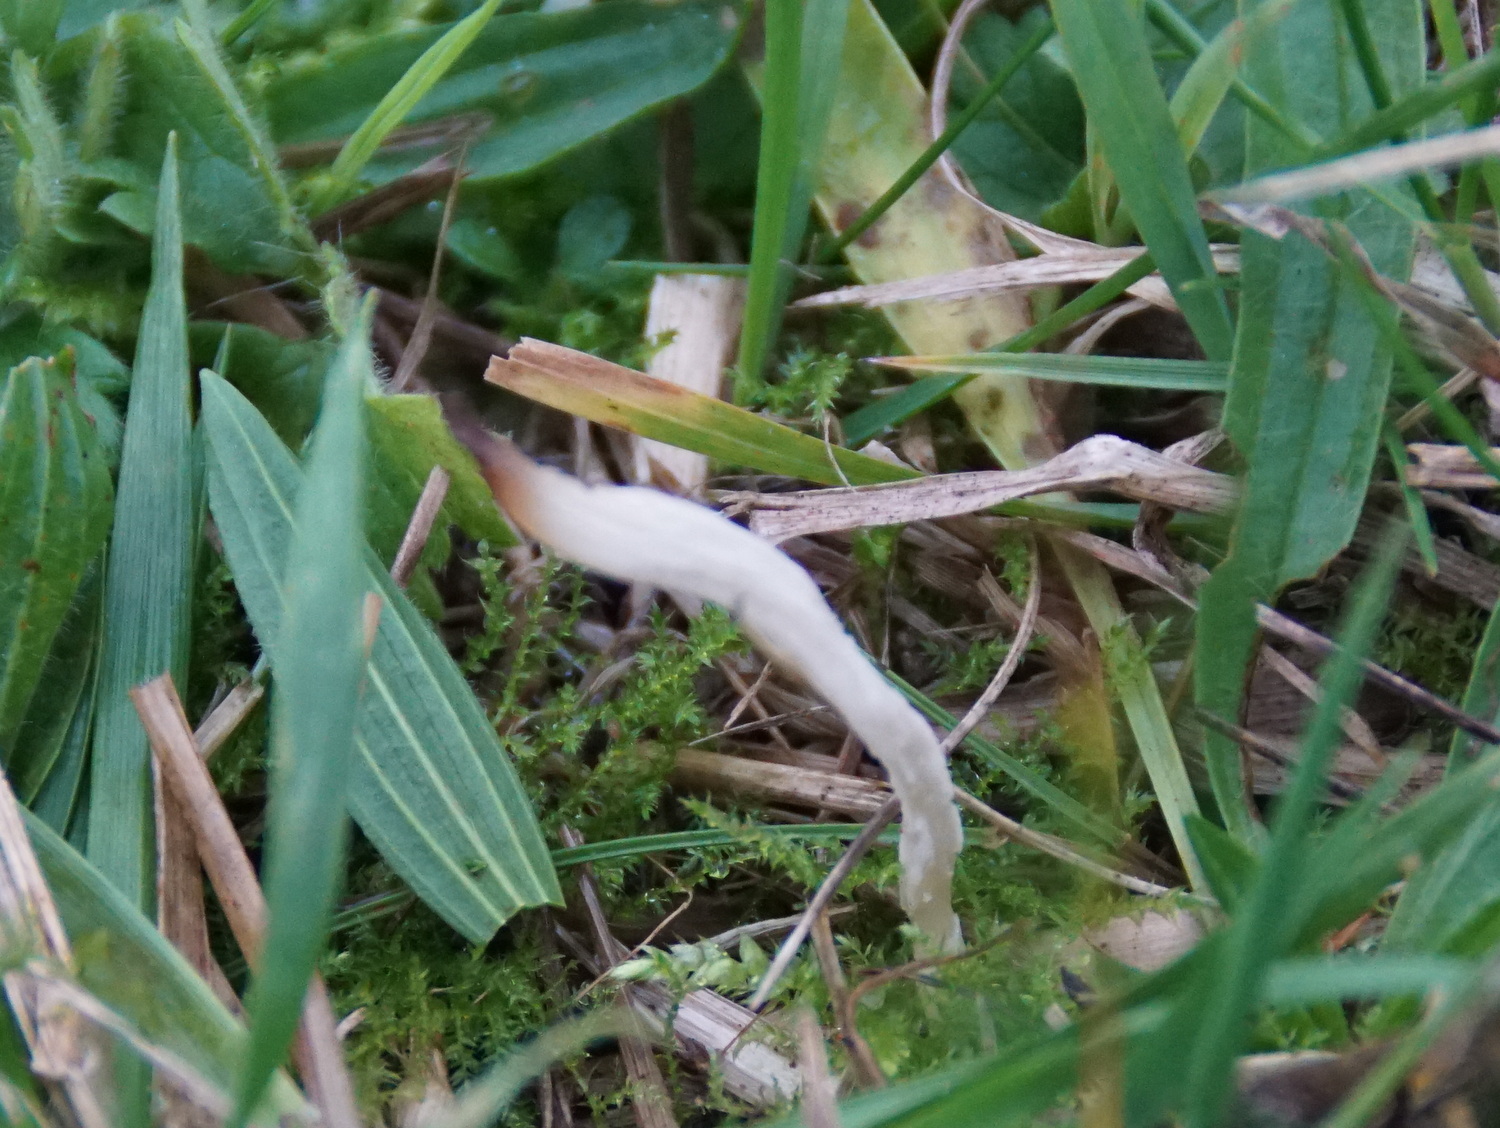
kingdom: Fungi
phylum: Basidiomycota
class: Agaricomycetes
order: Agaricales
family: Clavariaceae
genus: Clavaria
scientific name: Clavaria falcata
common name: hvid køllesvamp
